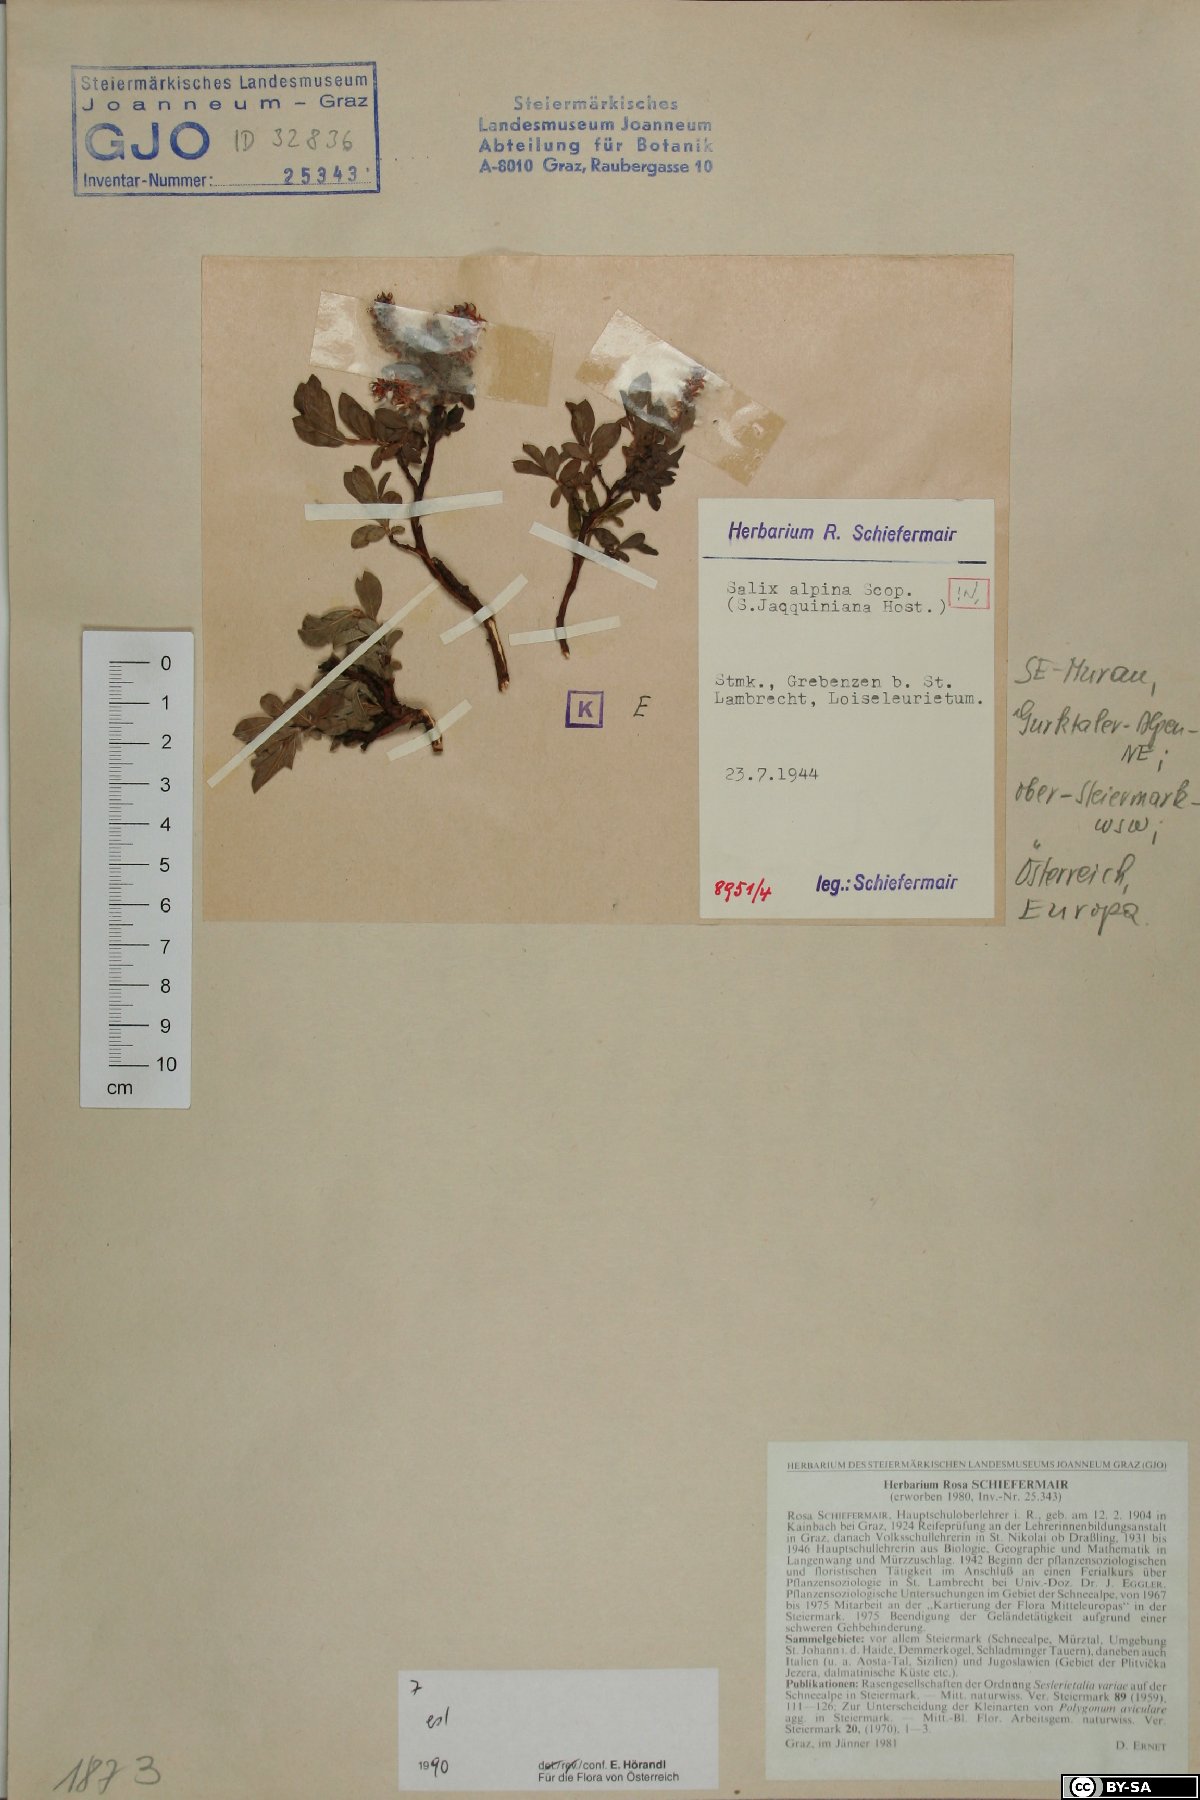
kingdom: Plantae
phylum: Tracheophyta
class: Magnoliopsida
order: Malpighiales
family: Salicaceae
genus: Salix
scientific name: Salix alpina
